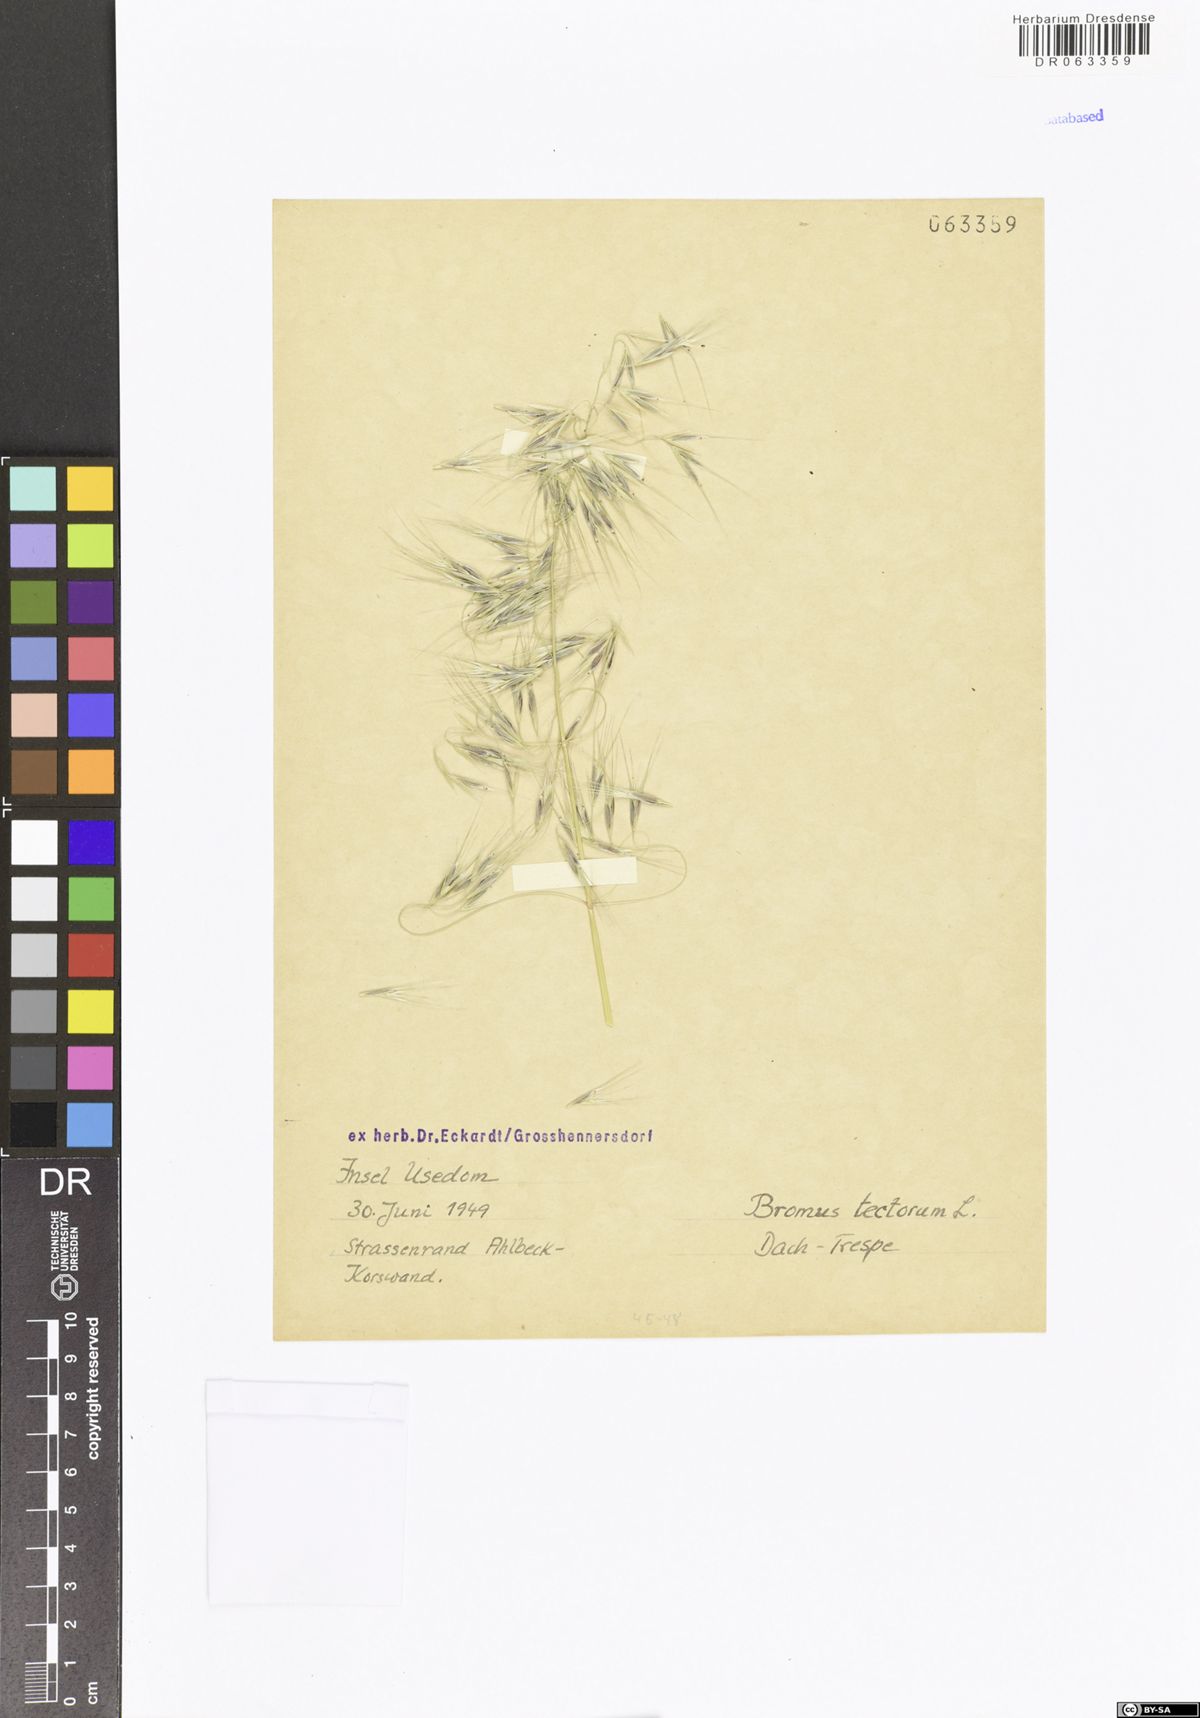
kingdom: Plantae
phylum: Tracheophyta
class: Liliopsida
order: Poales
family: Poaceae
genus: Bromus
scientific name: Bromus tectorum
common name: Cheatgrass
